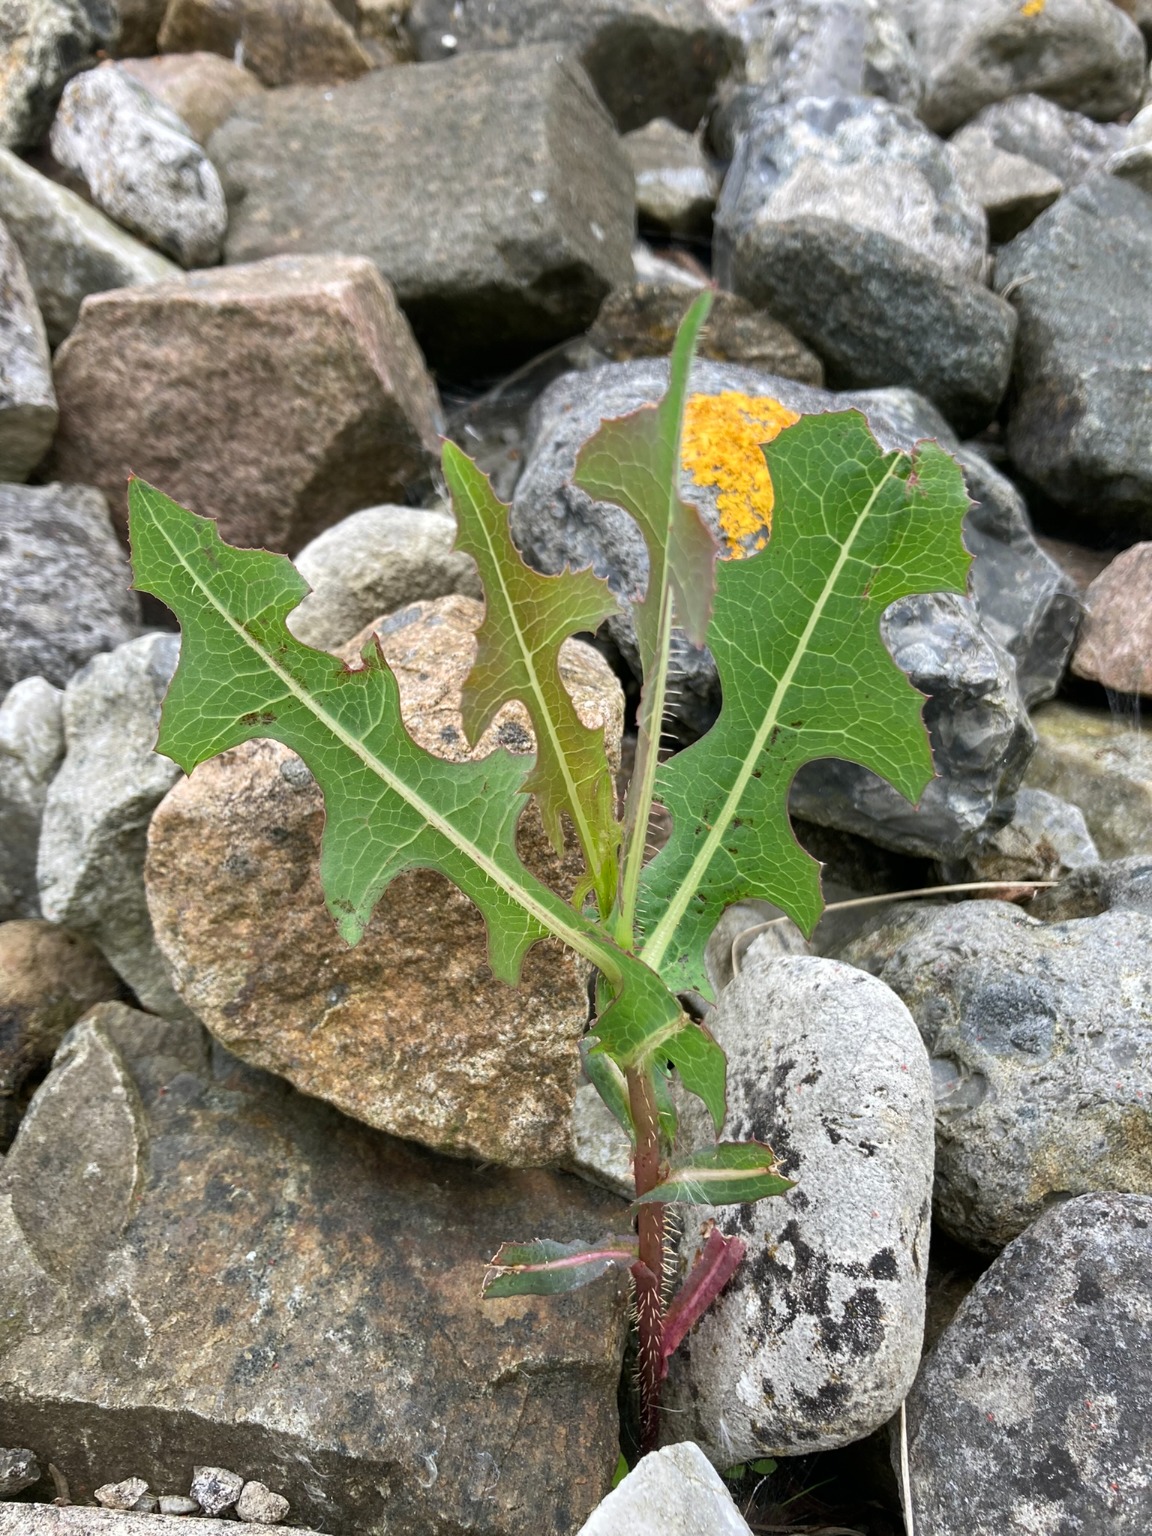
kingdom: Plantae
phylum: Tracheophyta
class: Magnoliopsida
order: Asterales
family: Asteraceae
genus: Lactuca
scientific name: Lactuca serriola
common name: Tornet salat
